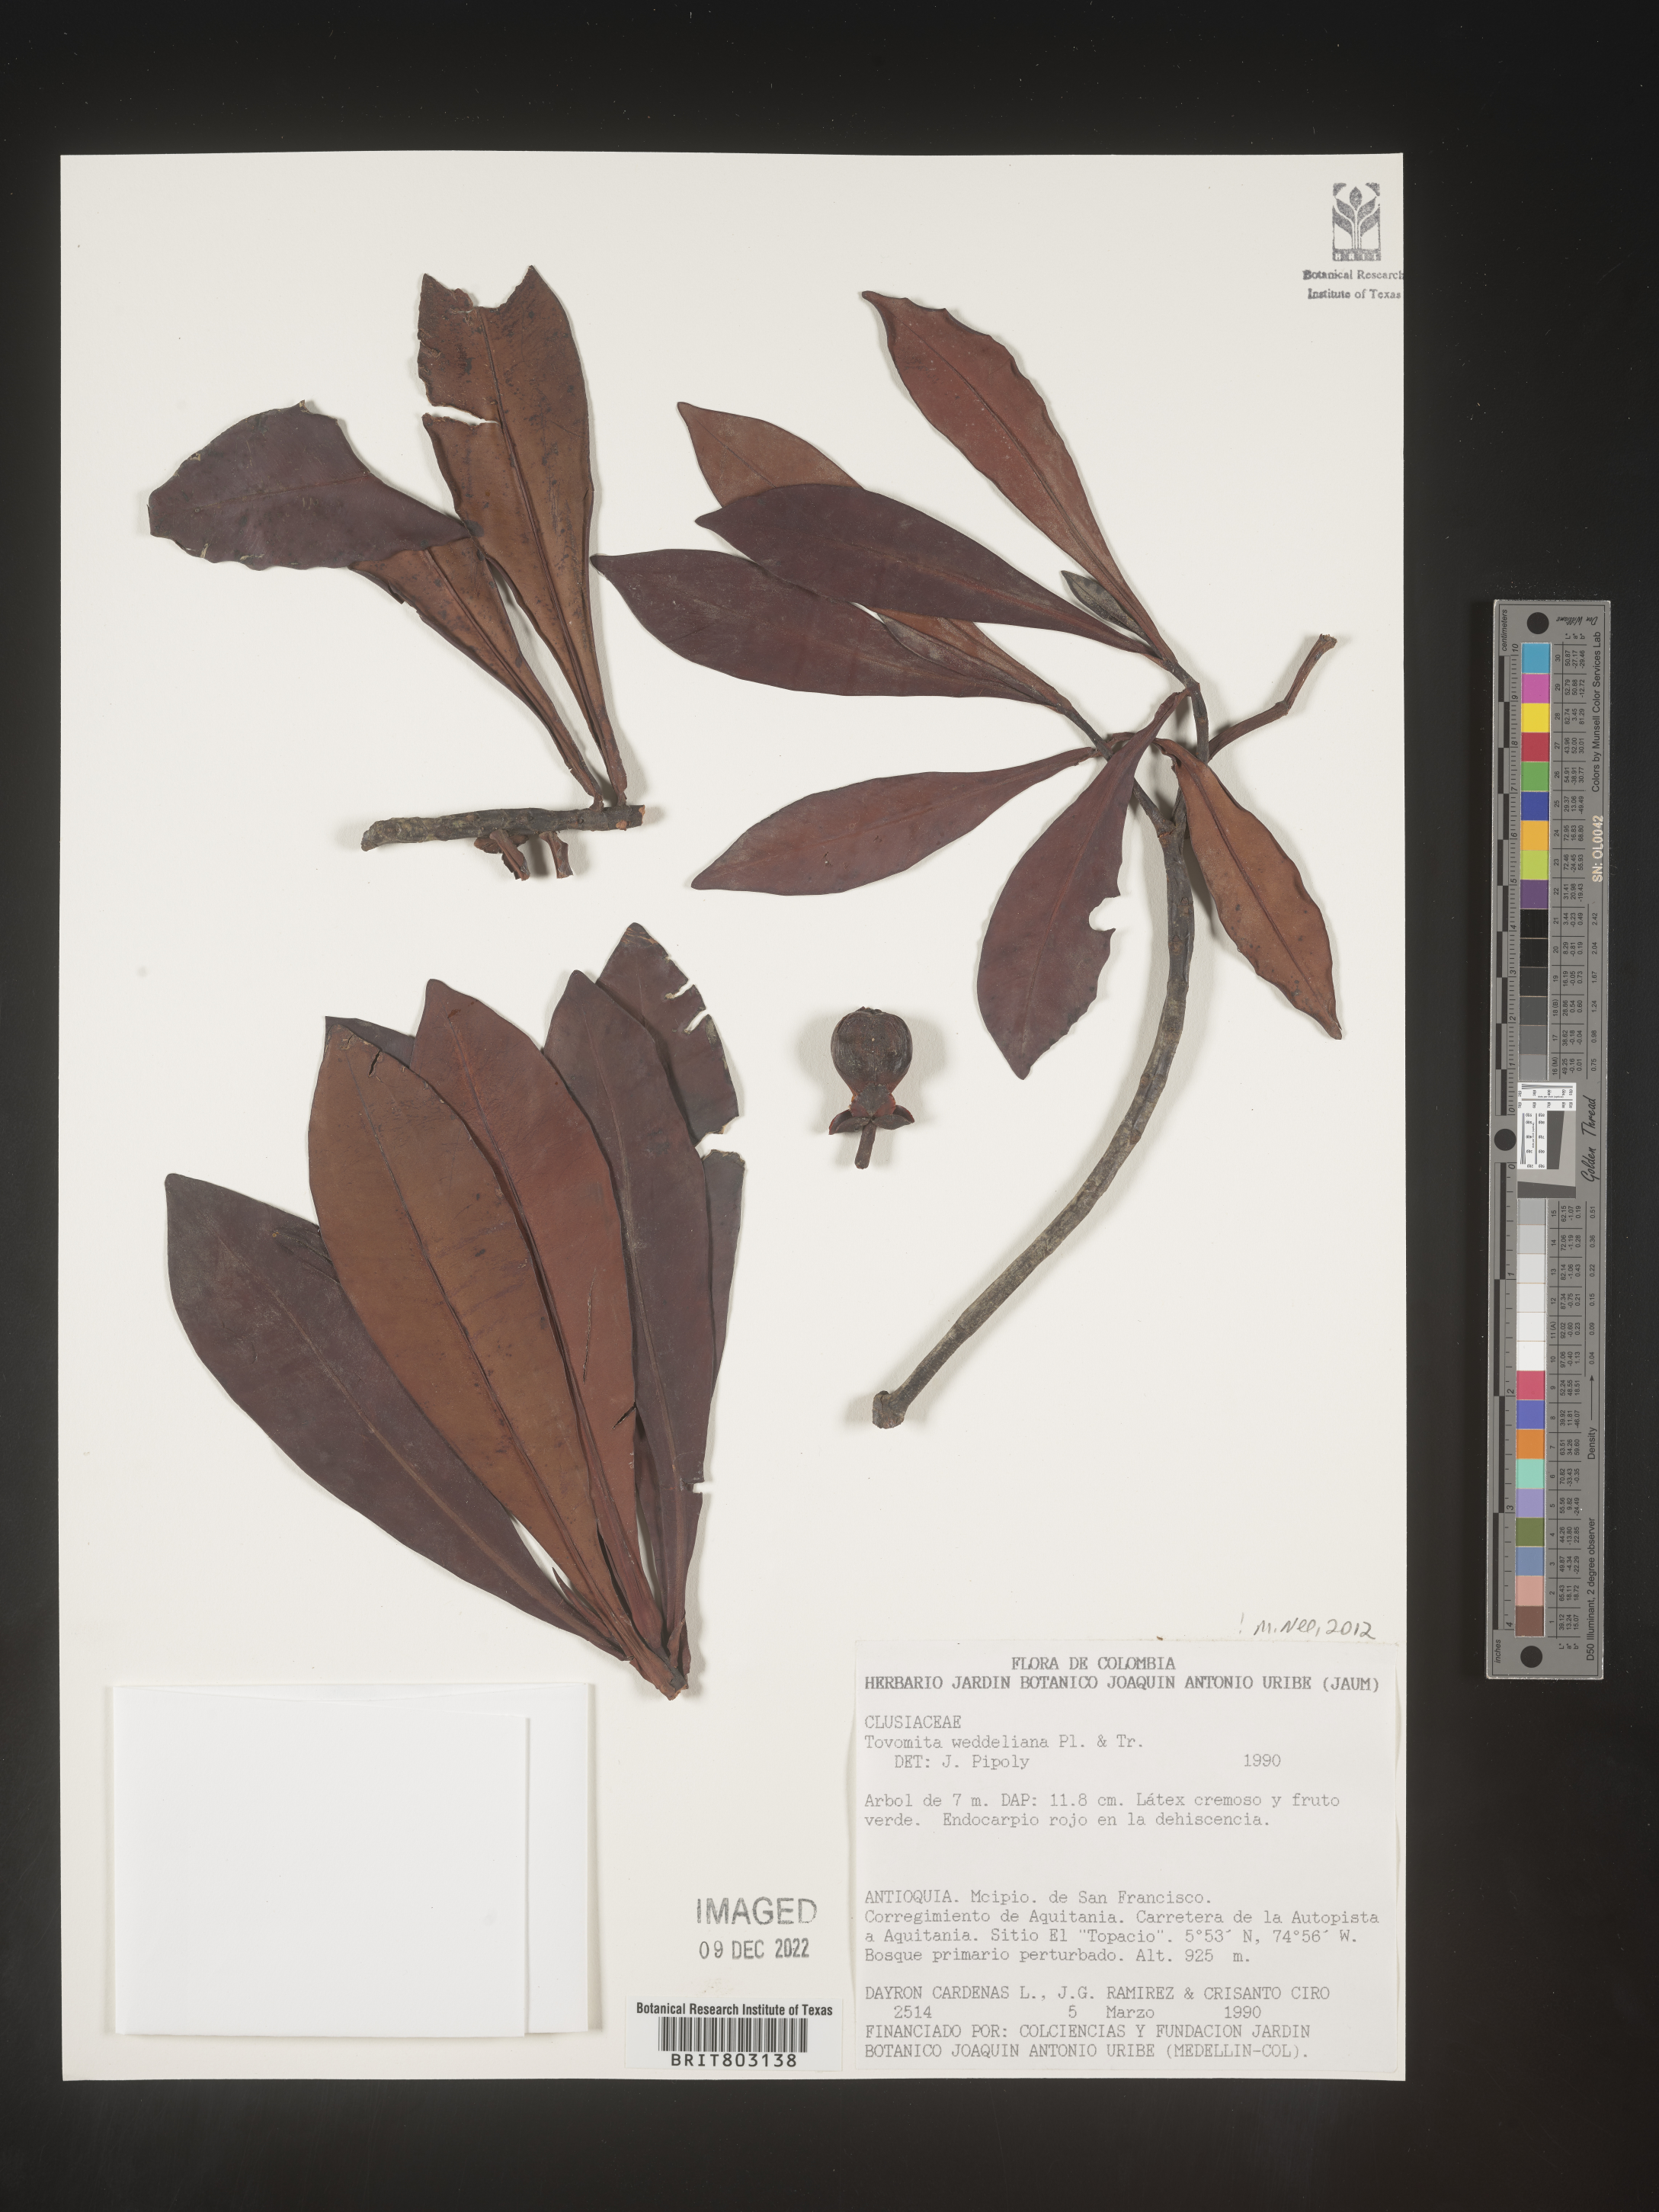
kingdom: Plantae
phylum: Tracheophyta
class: Magnoliopsida
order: Malpighiales
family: Clusiaceae
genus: Arawakia
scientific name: Arawakia weddelliana
